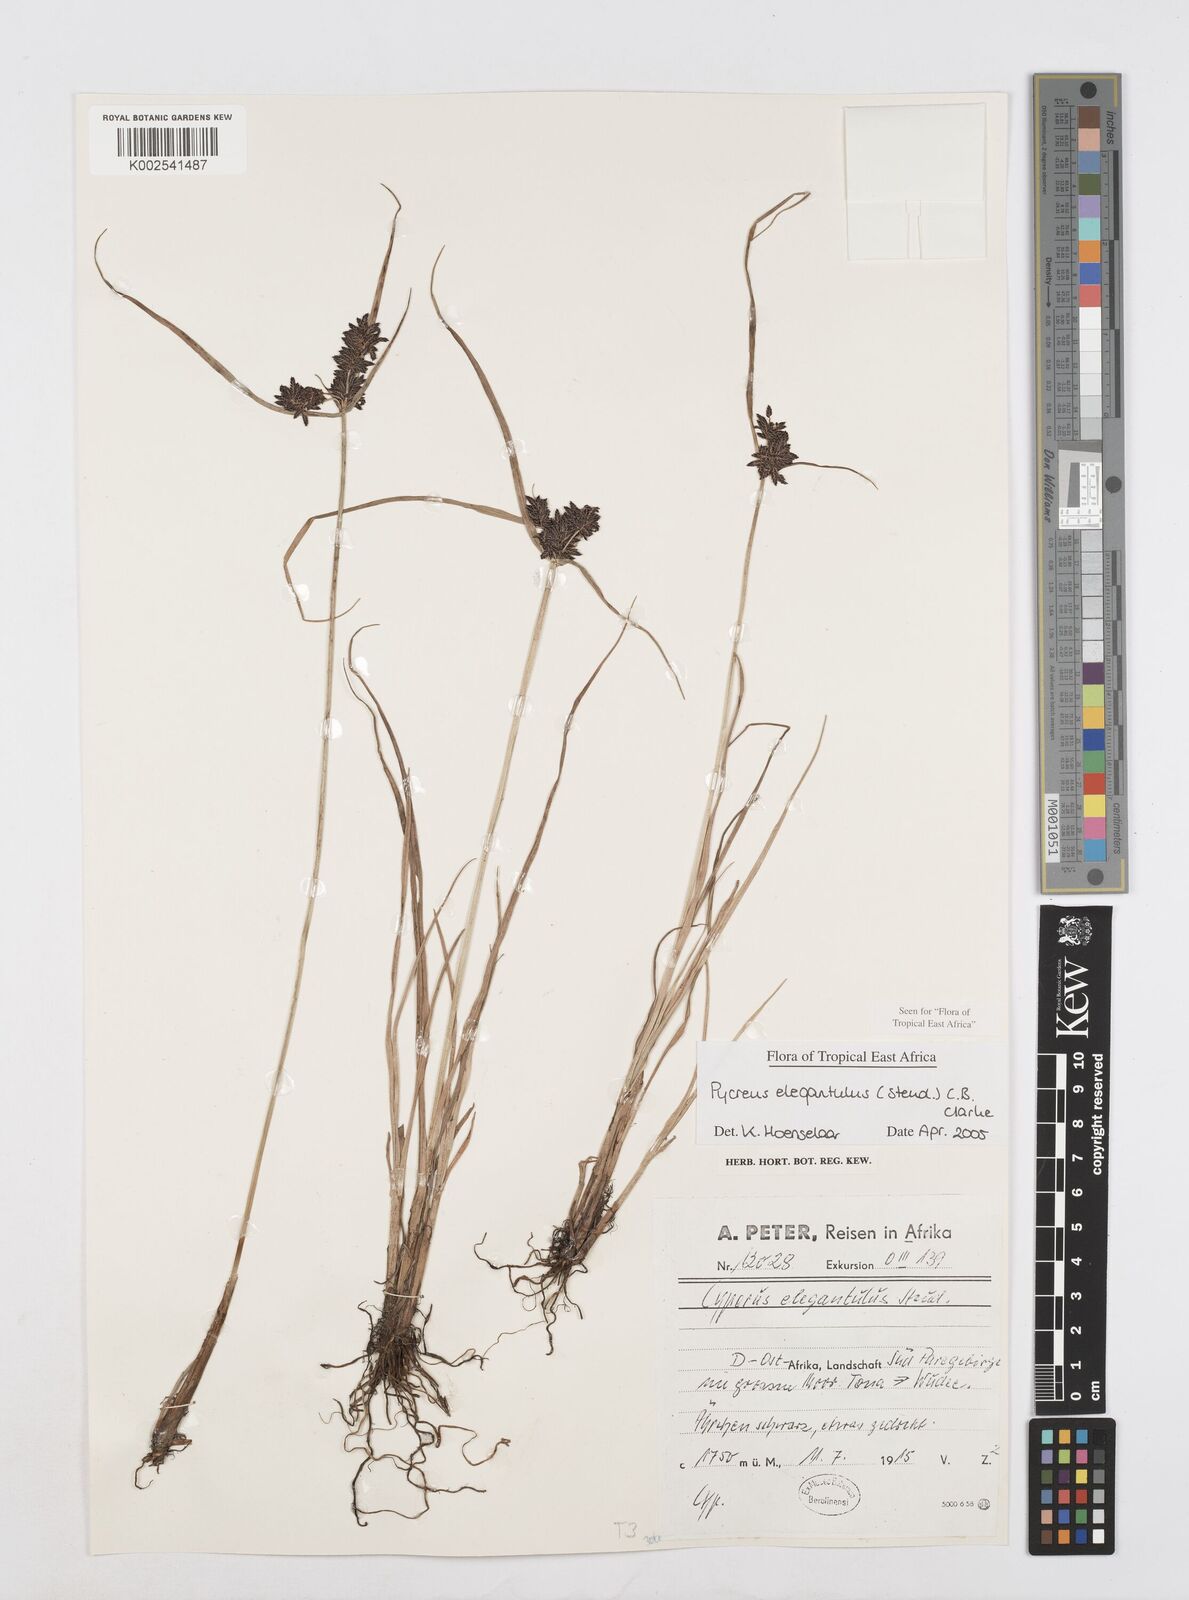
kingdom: Plantae
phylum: Tracheophyta
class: Liliopsida
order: Poales
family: Cyperaceae
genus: Cyperus
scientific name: Cyperus elegantulus
